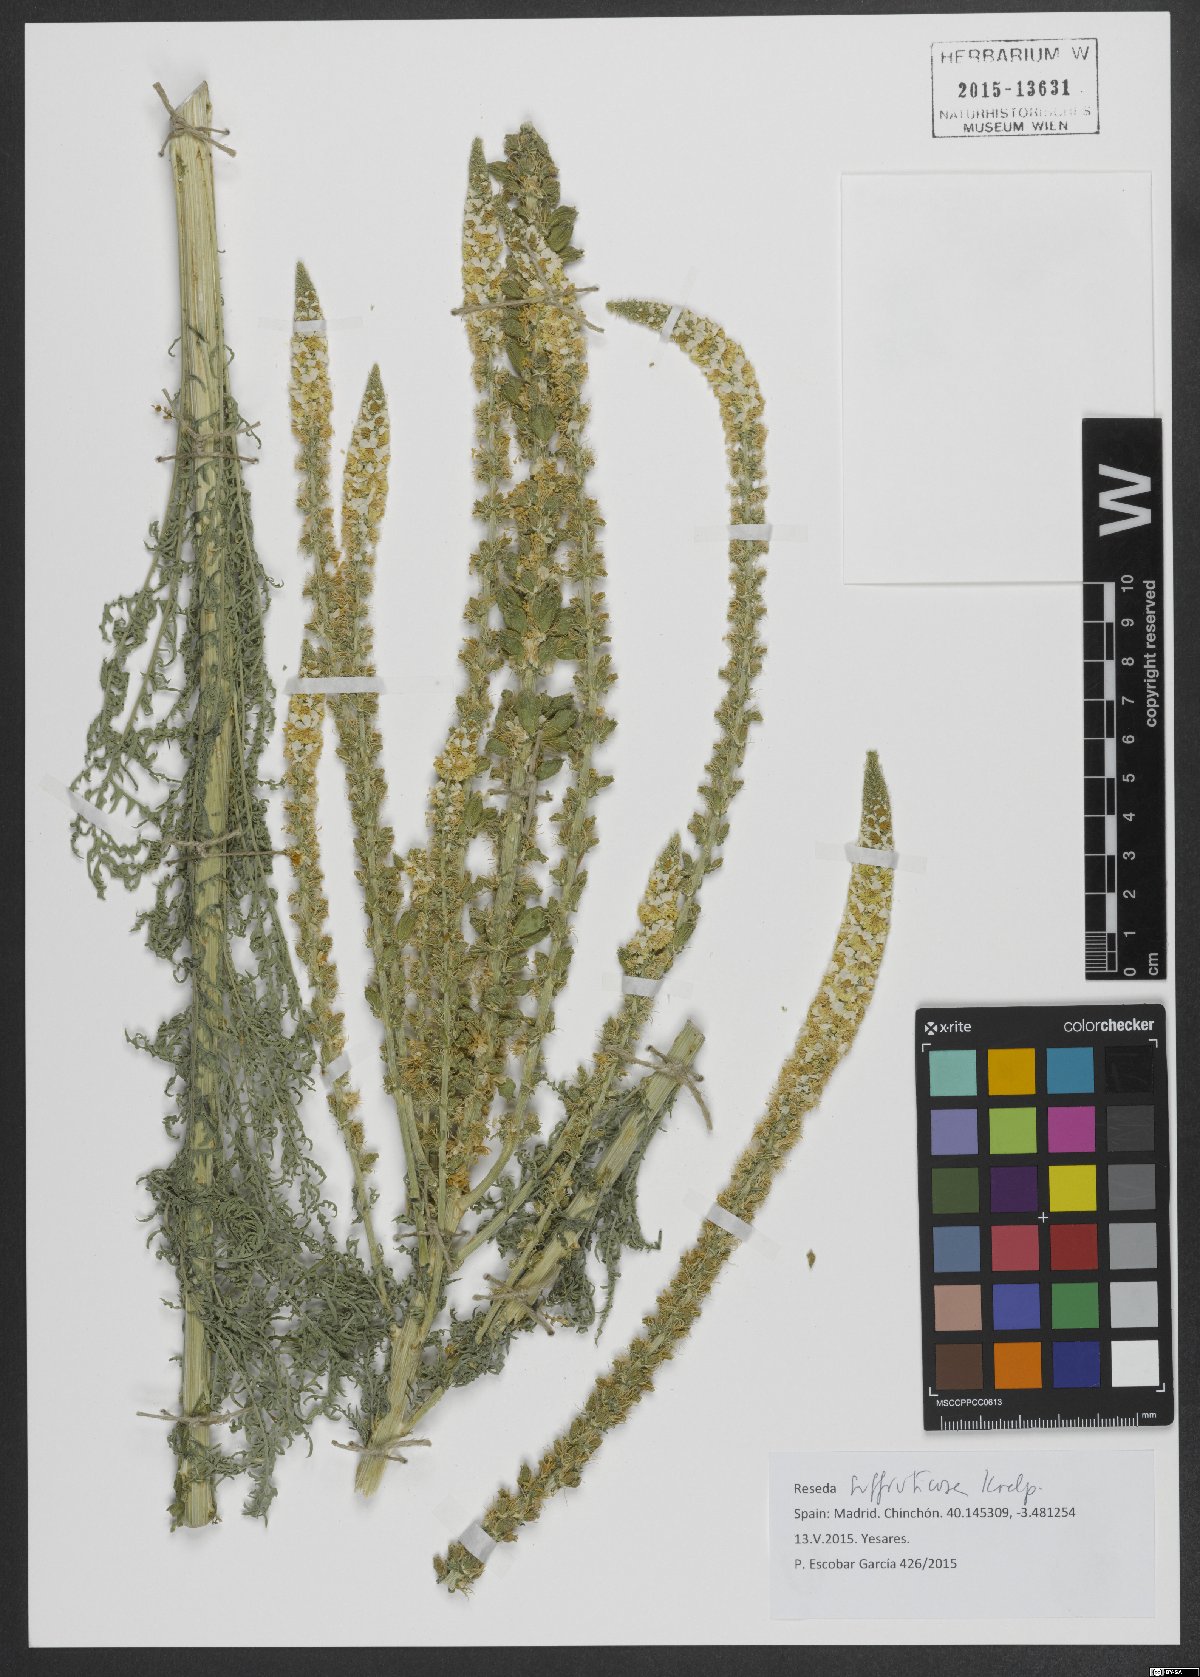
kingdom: Plantae
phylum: Tracheophyta
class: Magnoliopsida
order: Brassicales
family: Resedaceae
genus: Reseda
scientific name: Reseda suffruticosa
